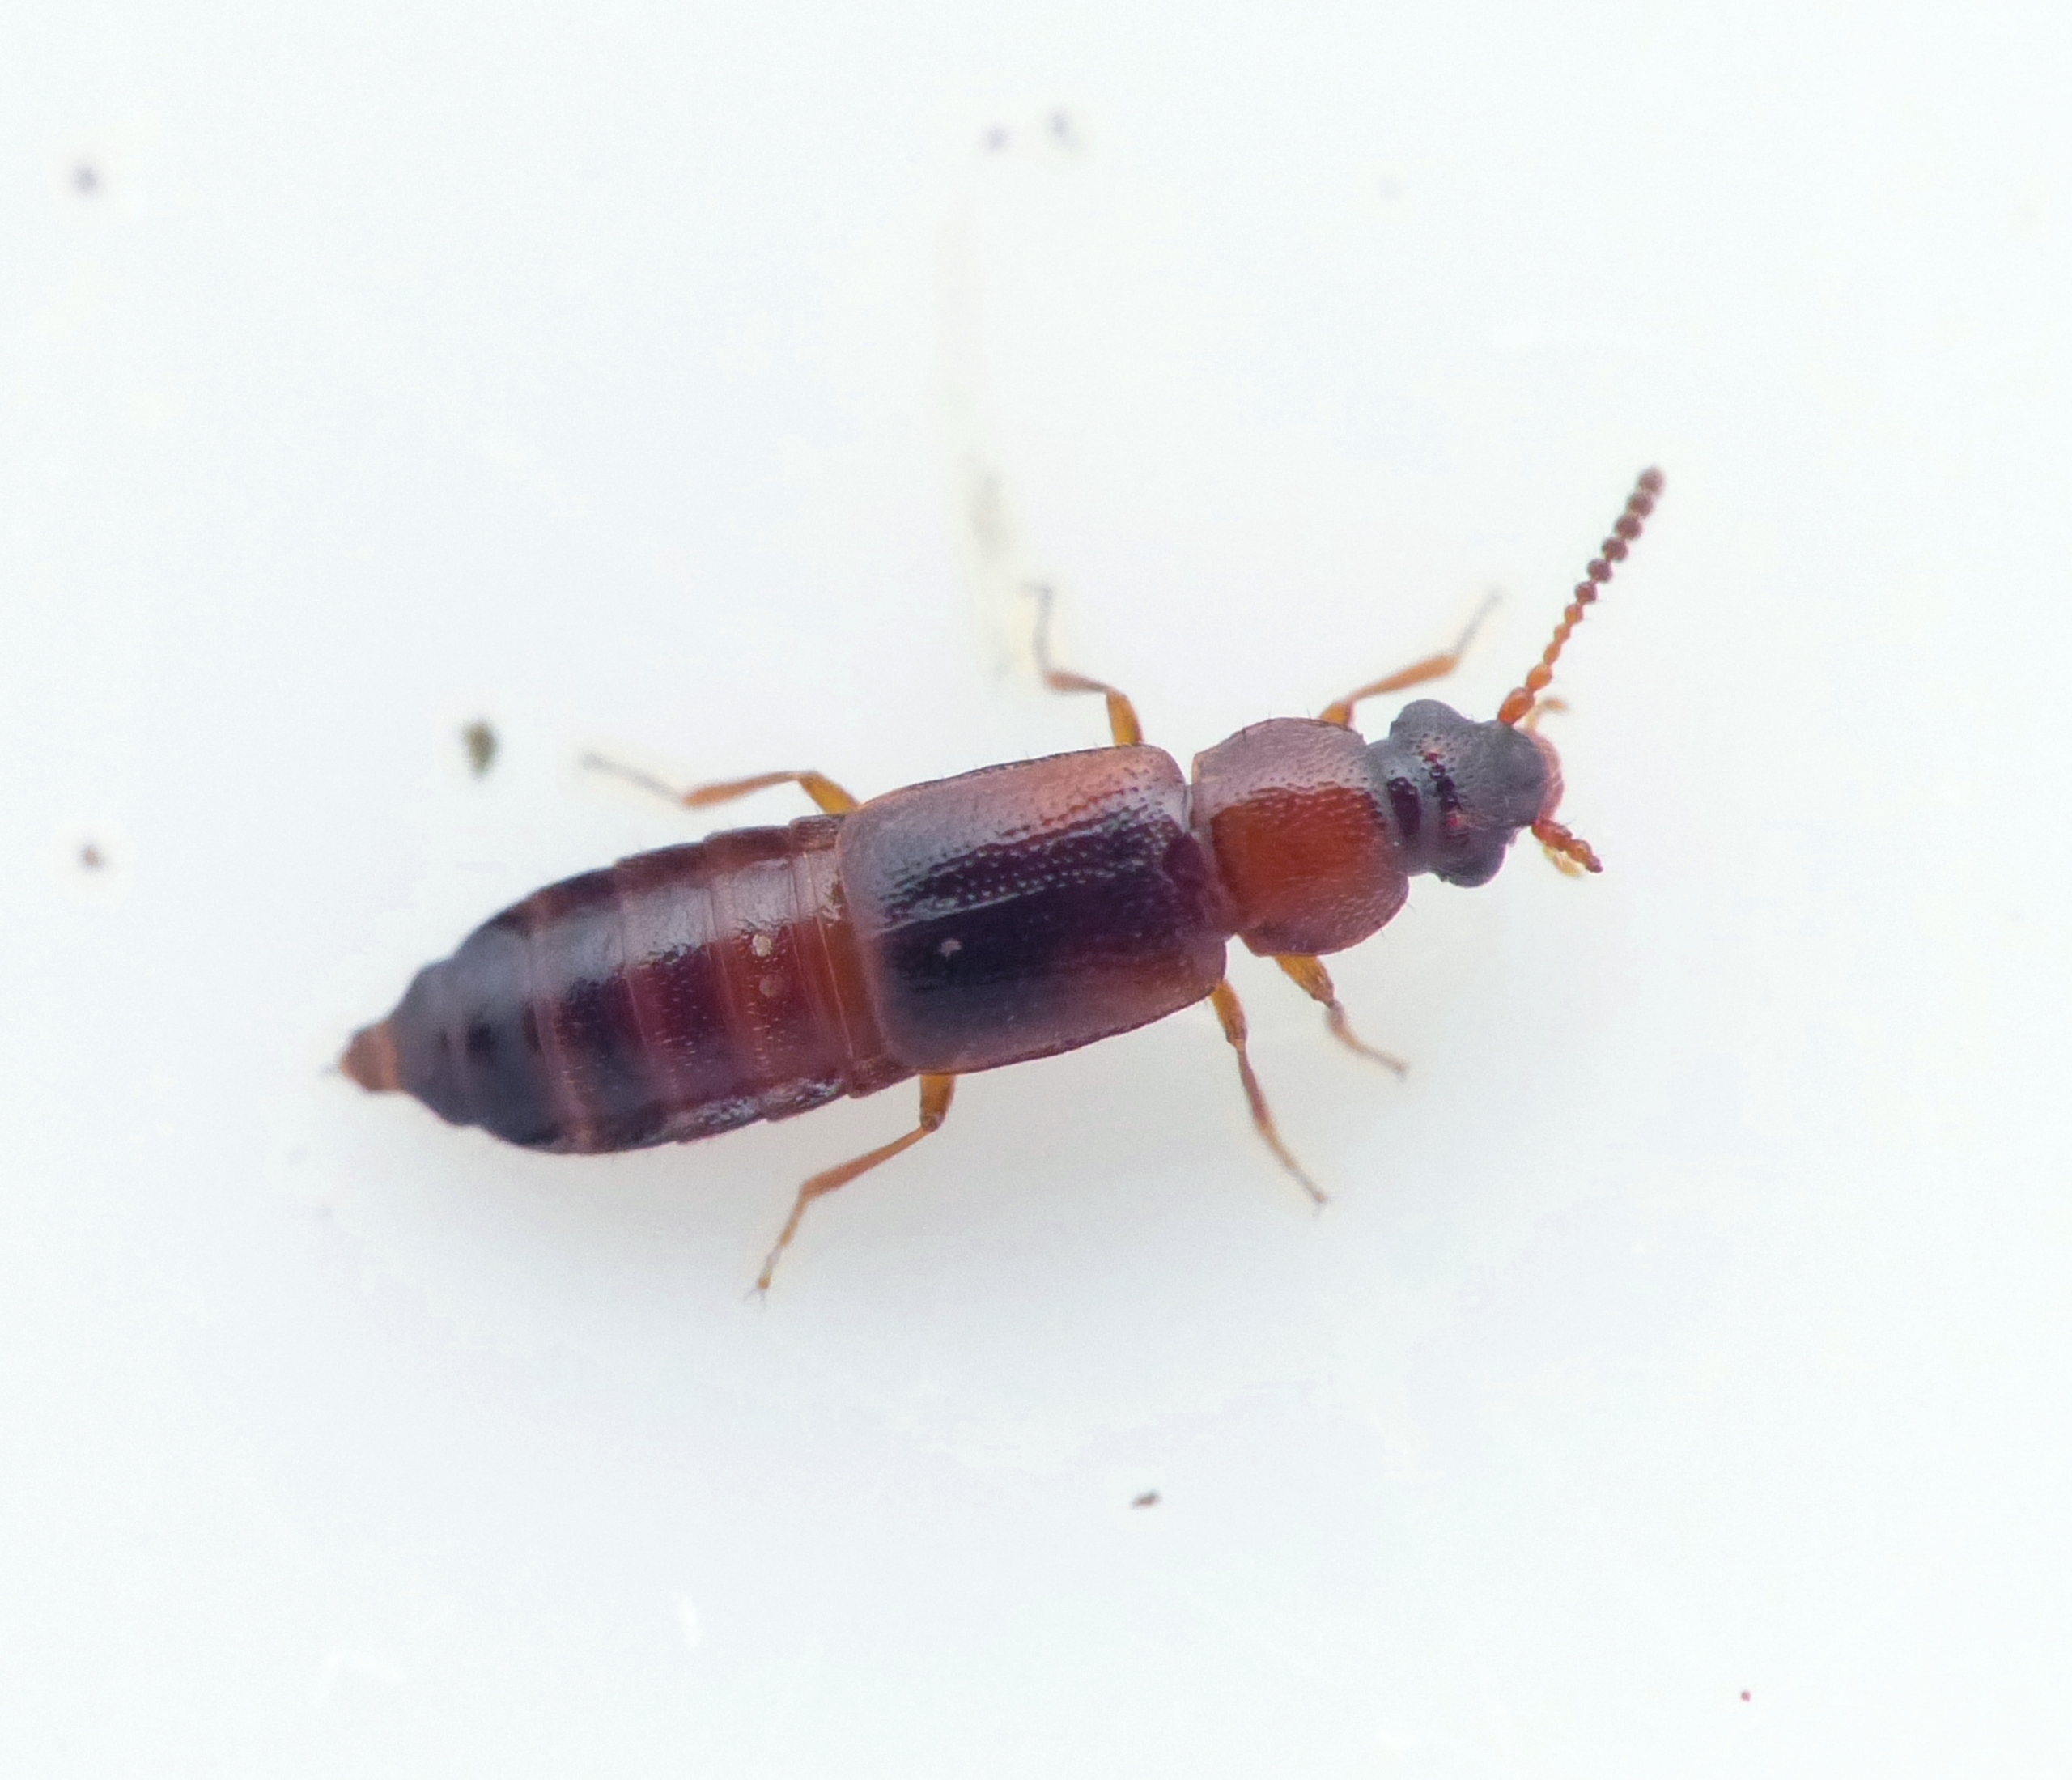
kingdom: Animalia
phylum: Arthropoda
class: Insecta
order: Coleoptera
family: Staphylinidae
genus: Dropephylla
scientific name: Dropephylla ioptera
